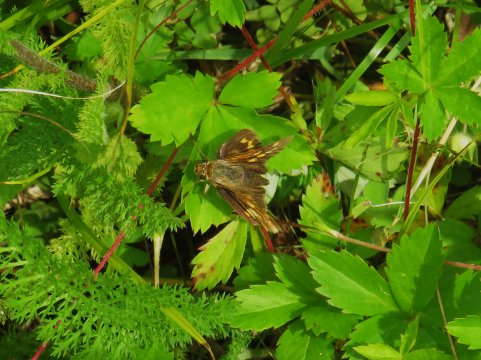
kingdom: Animalia
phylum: Arthropoda
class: Insecta
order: Lepidoptera
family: Hesperiidae
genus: Polites
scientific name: Polites
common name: Long Dash Skipper
